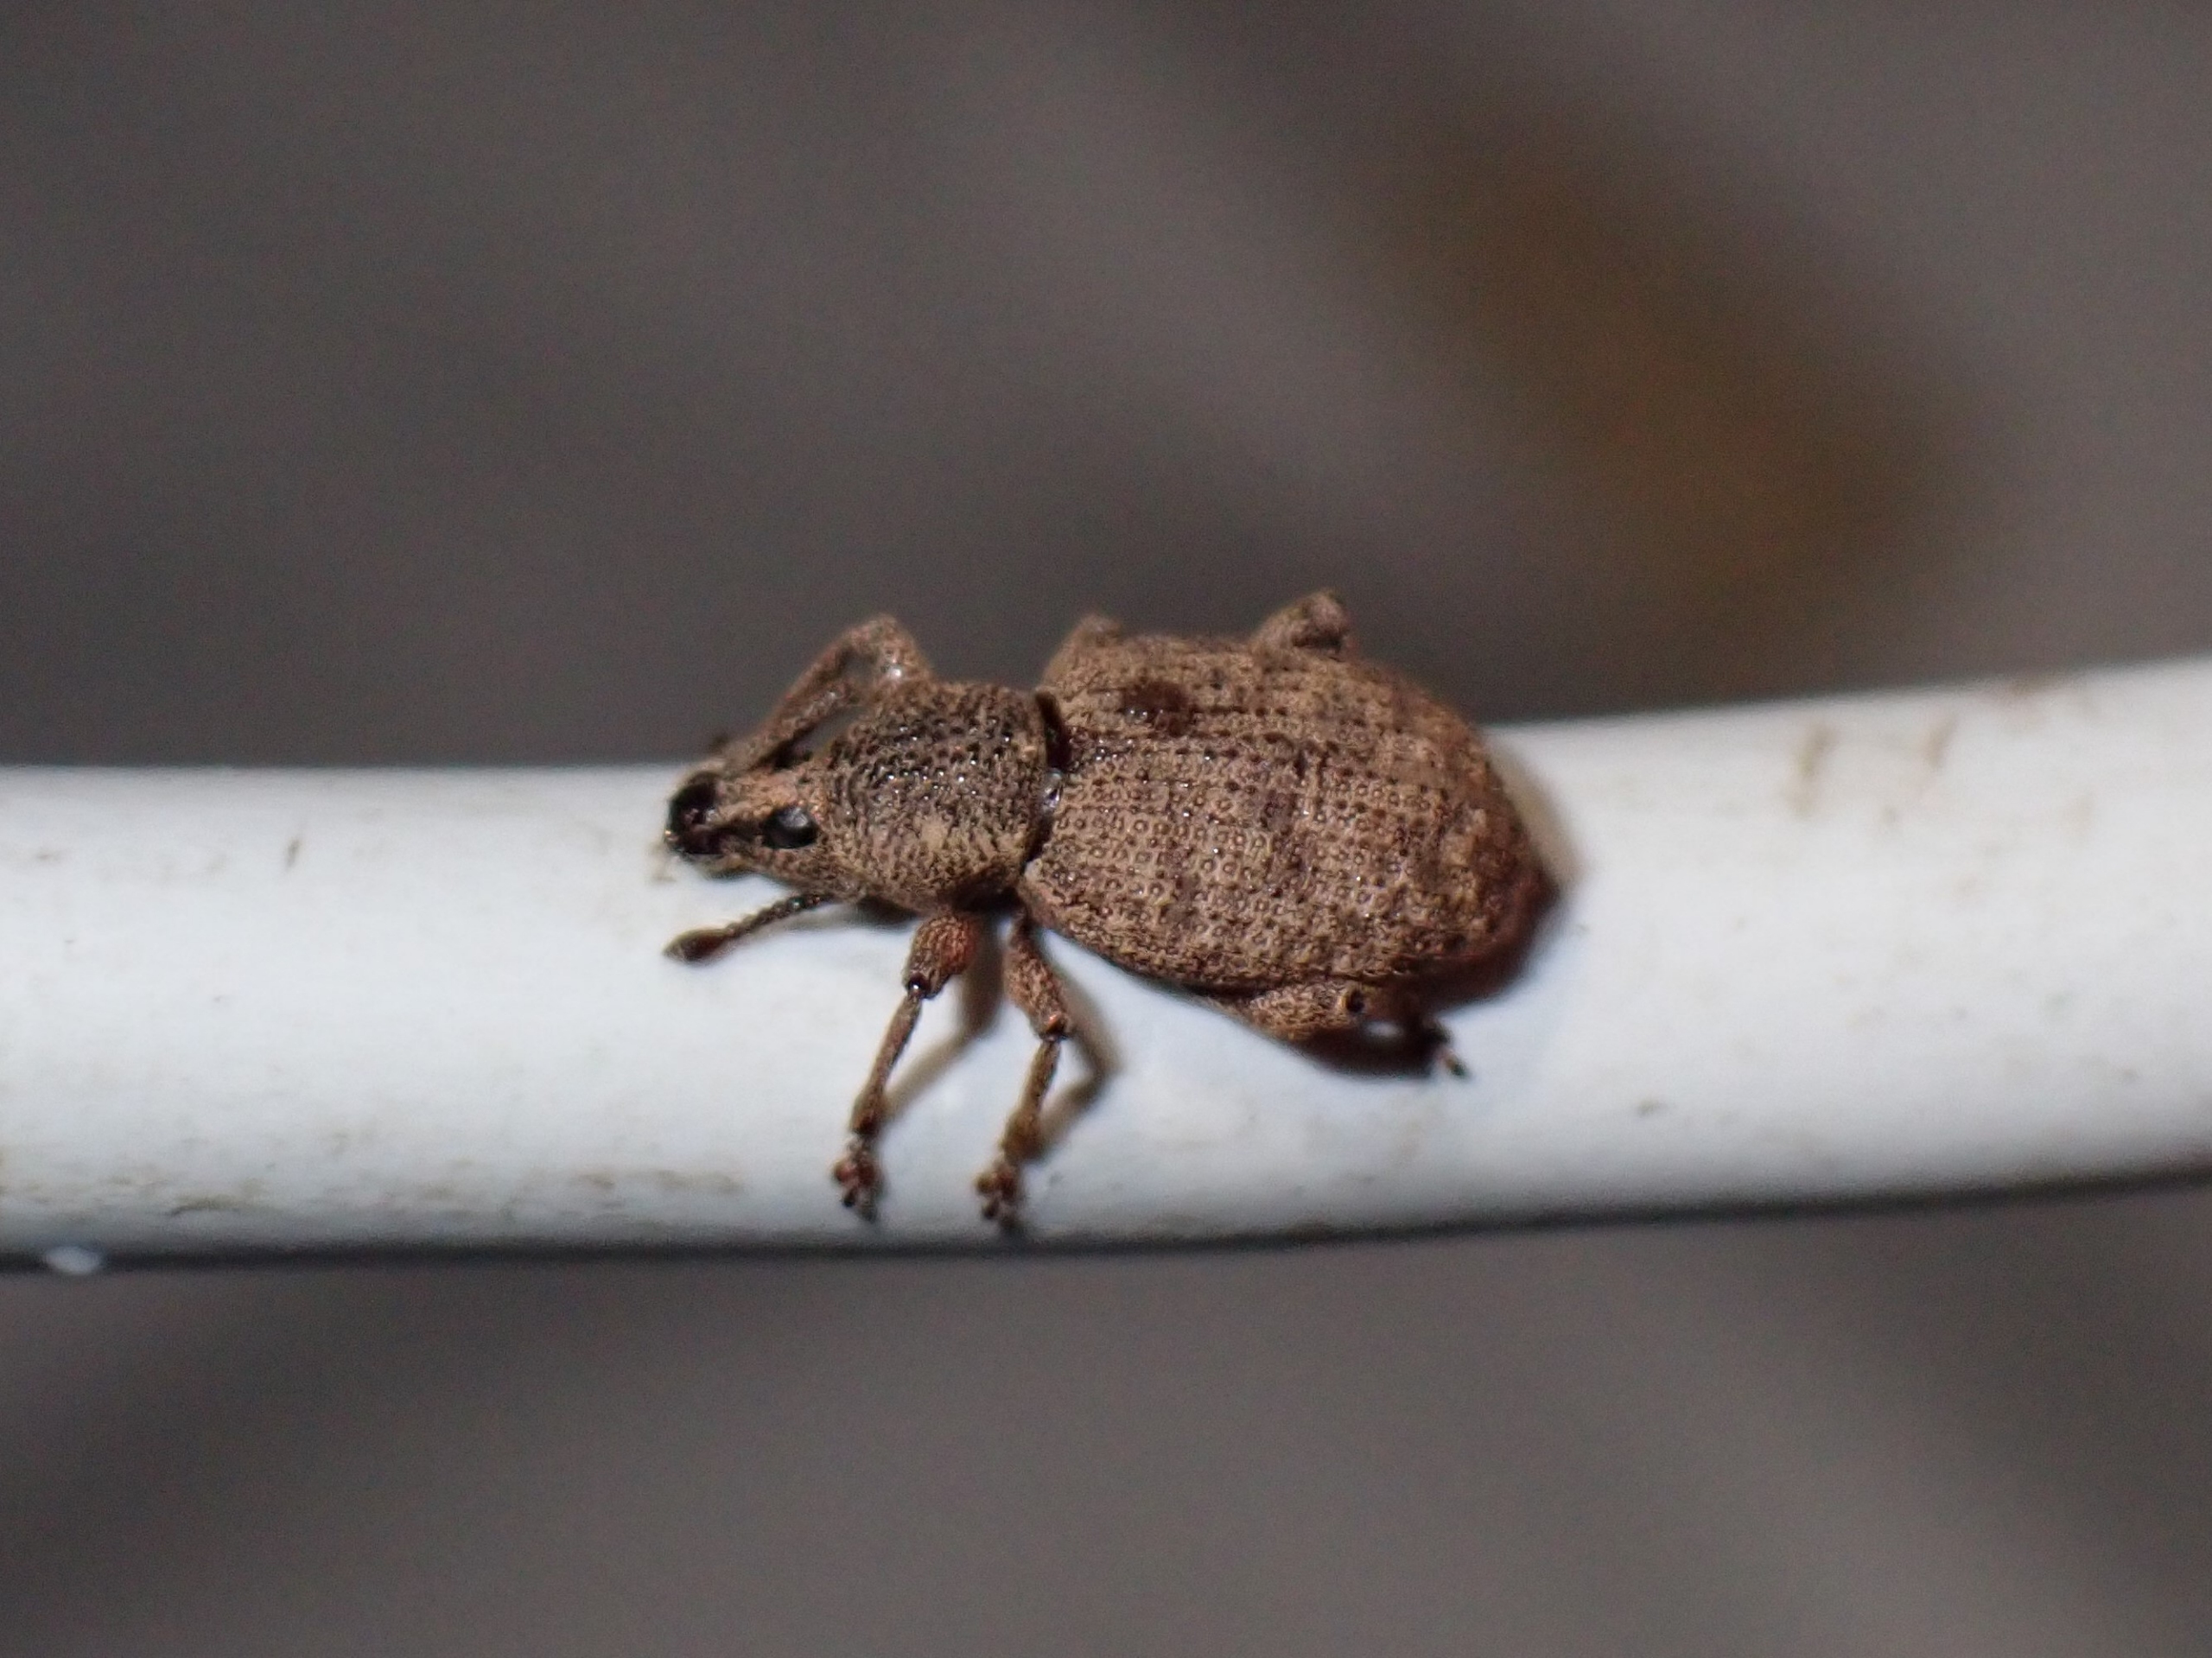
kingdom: Animalia
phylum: Arthropoda
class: Insecta
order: Coleoptera
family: Curculionidae
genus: Otiorhynchus
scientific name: Otiorhynchus singularis
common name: Barkøresnudebille
